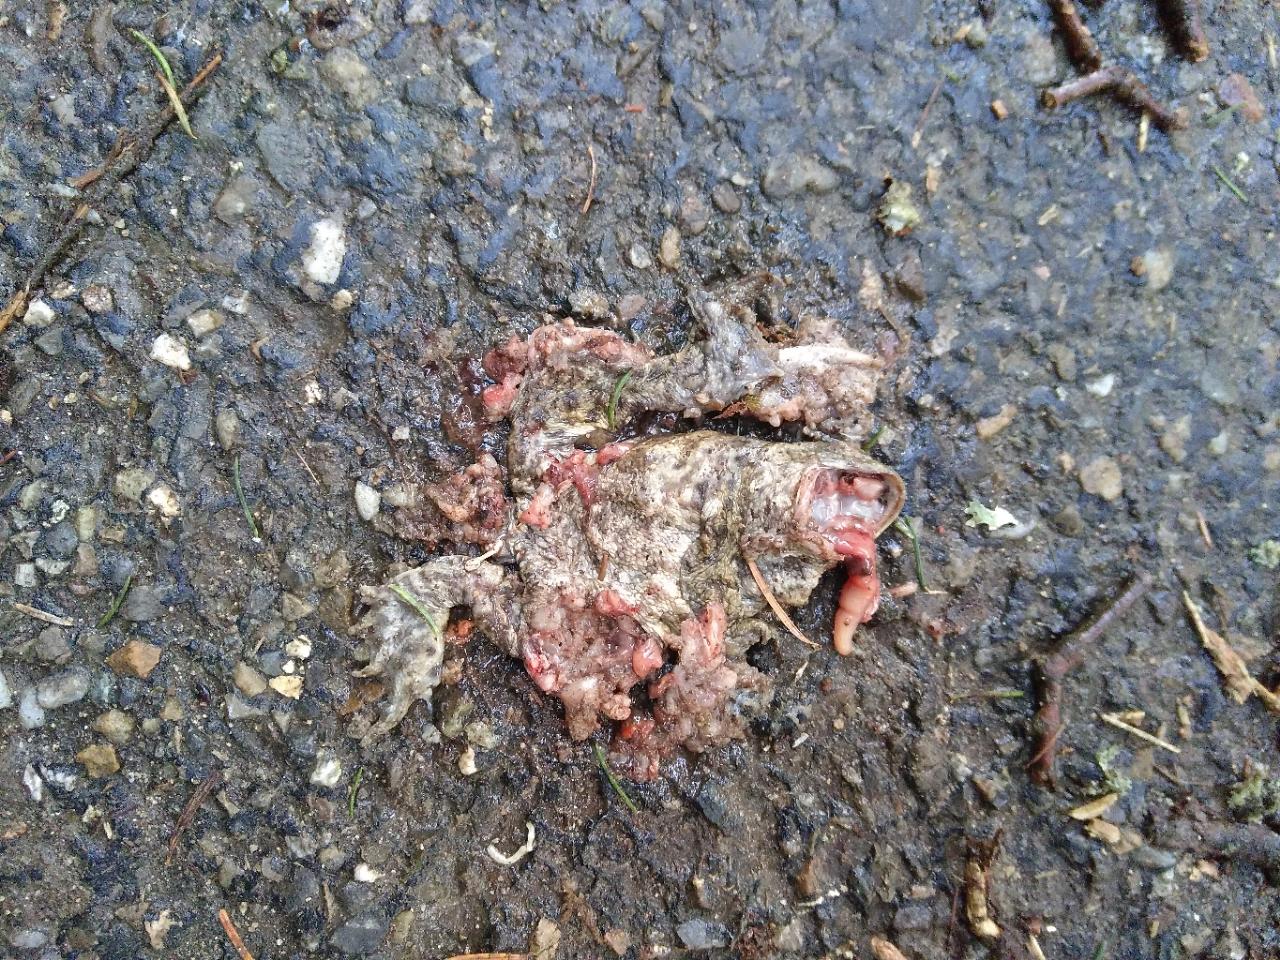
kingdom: Animalia
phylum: Chordata
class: Amphibia
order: Anura
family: Bufonidae
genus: Bufo
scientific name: Bufo bufo
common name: Common toad
